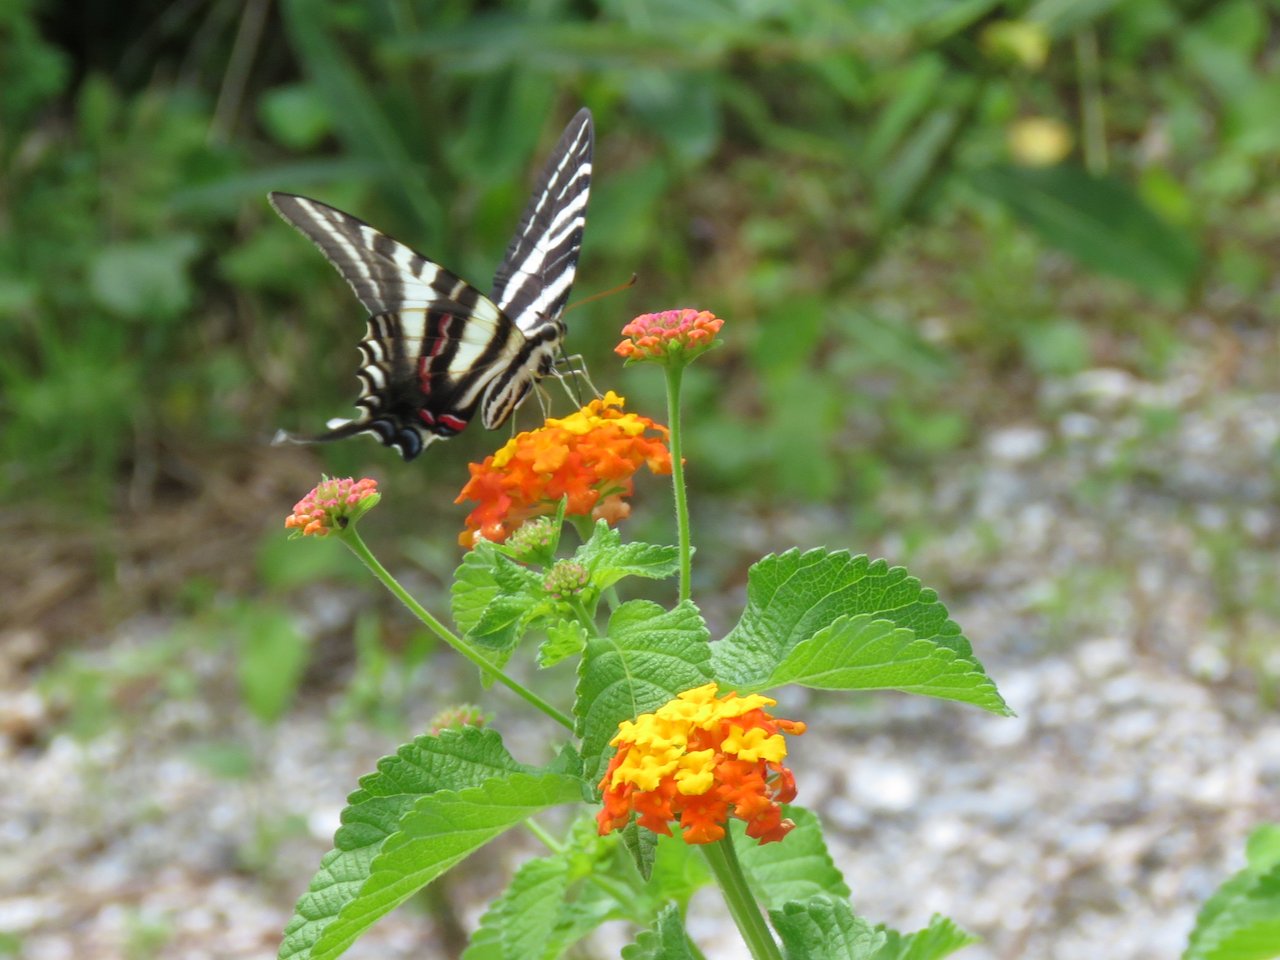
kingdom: Animalia
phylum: Arthropoda
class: Insecta
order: Lepidoptera
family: Papilionidae
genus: Protographium
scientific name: Protographium marcellus
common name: Zebra Swallowtail
